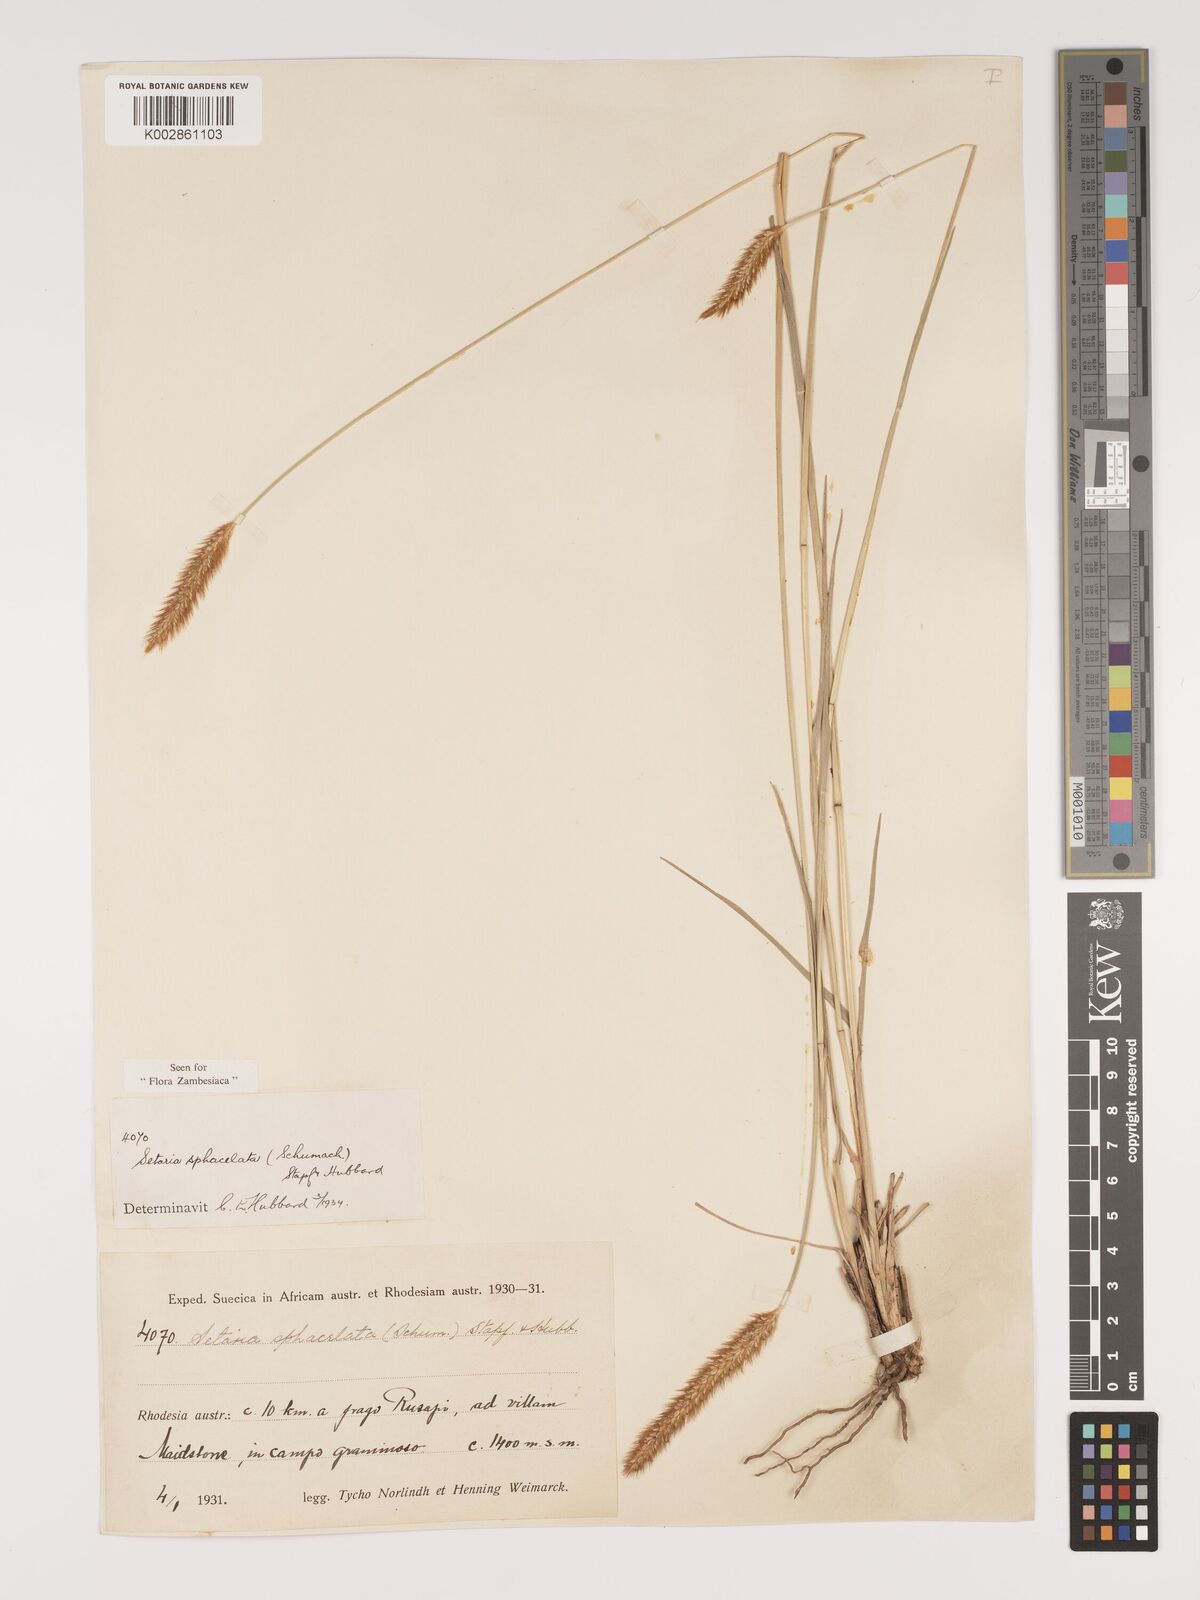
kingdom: Plantae
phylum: Tracheophyta
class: Liliopsida
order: Poales
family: Poaceae
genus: Setaria
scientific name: Setaria sphacelata
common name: African bristlegrass
